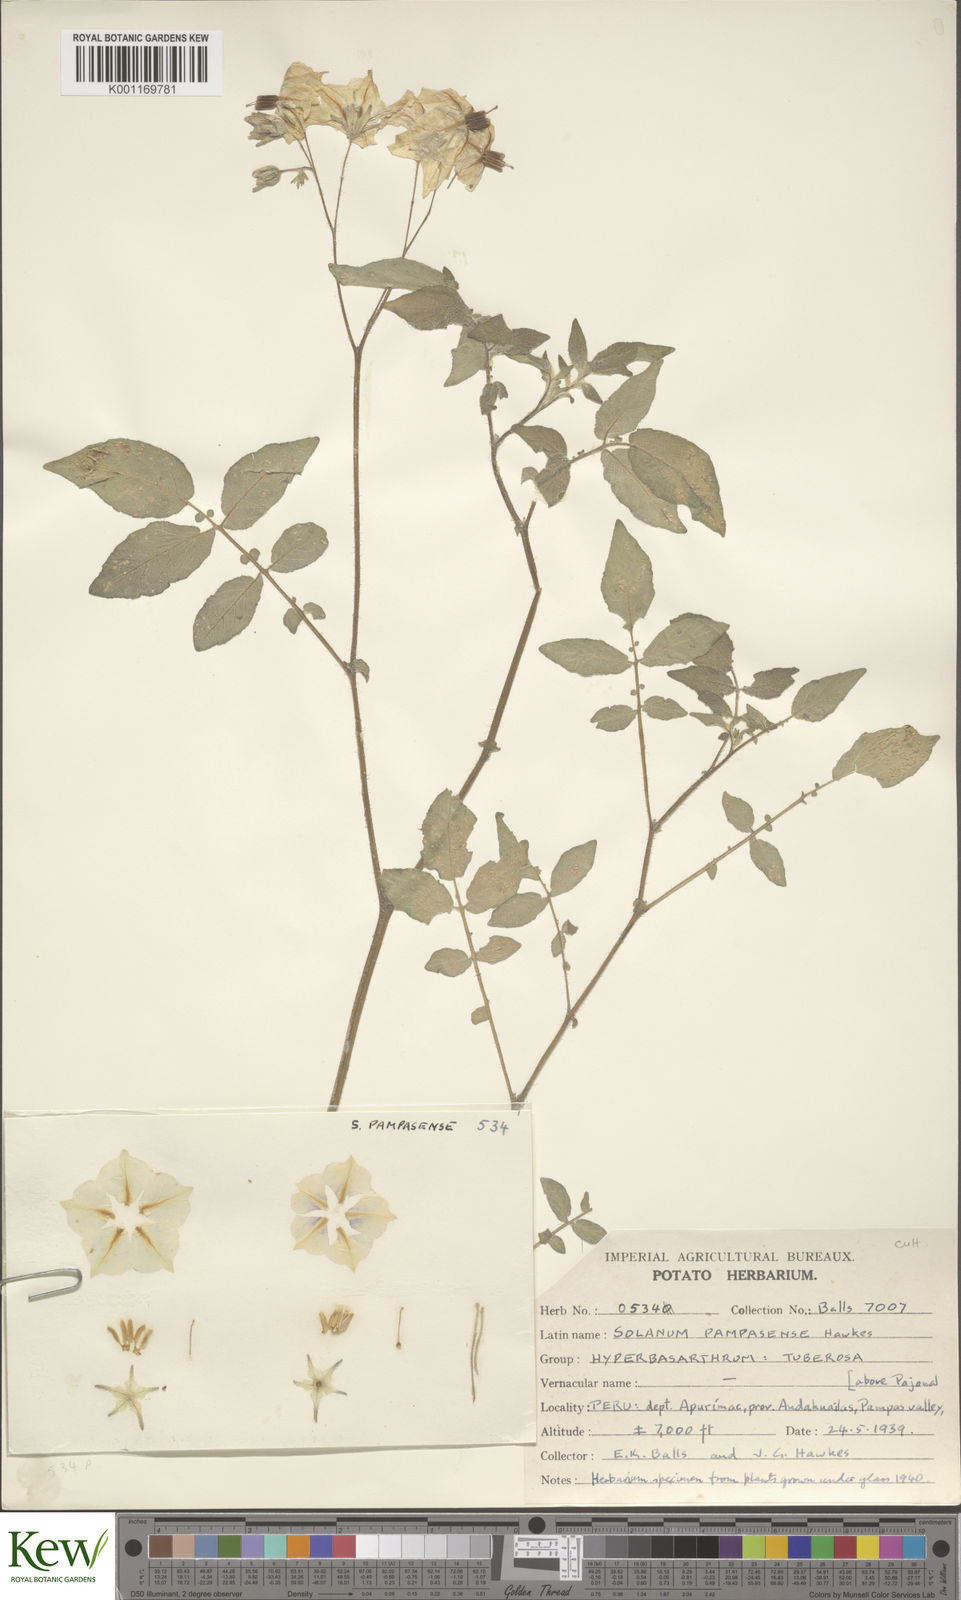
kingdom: Plantae
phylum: Tracheophyta
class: Magnoliopsida
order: Solanales
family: Solanaceae
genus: Solanum
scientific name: Solanum candolleanum
